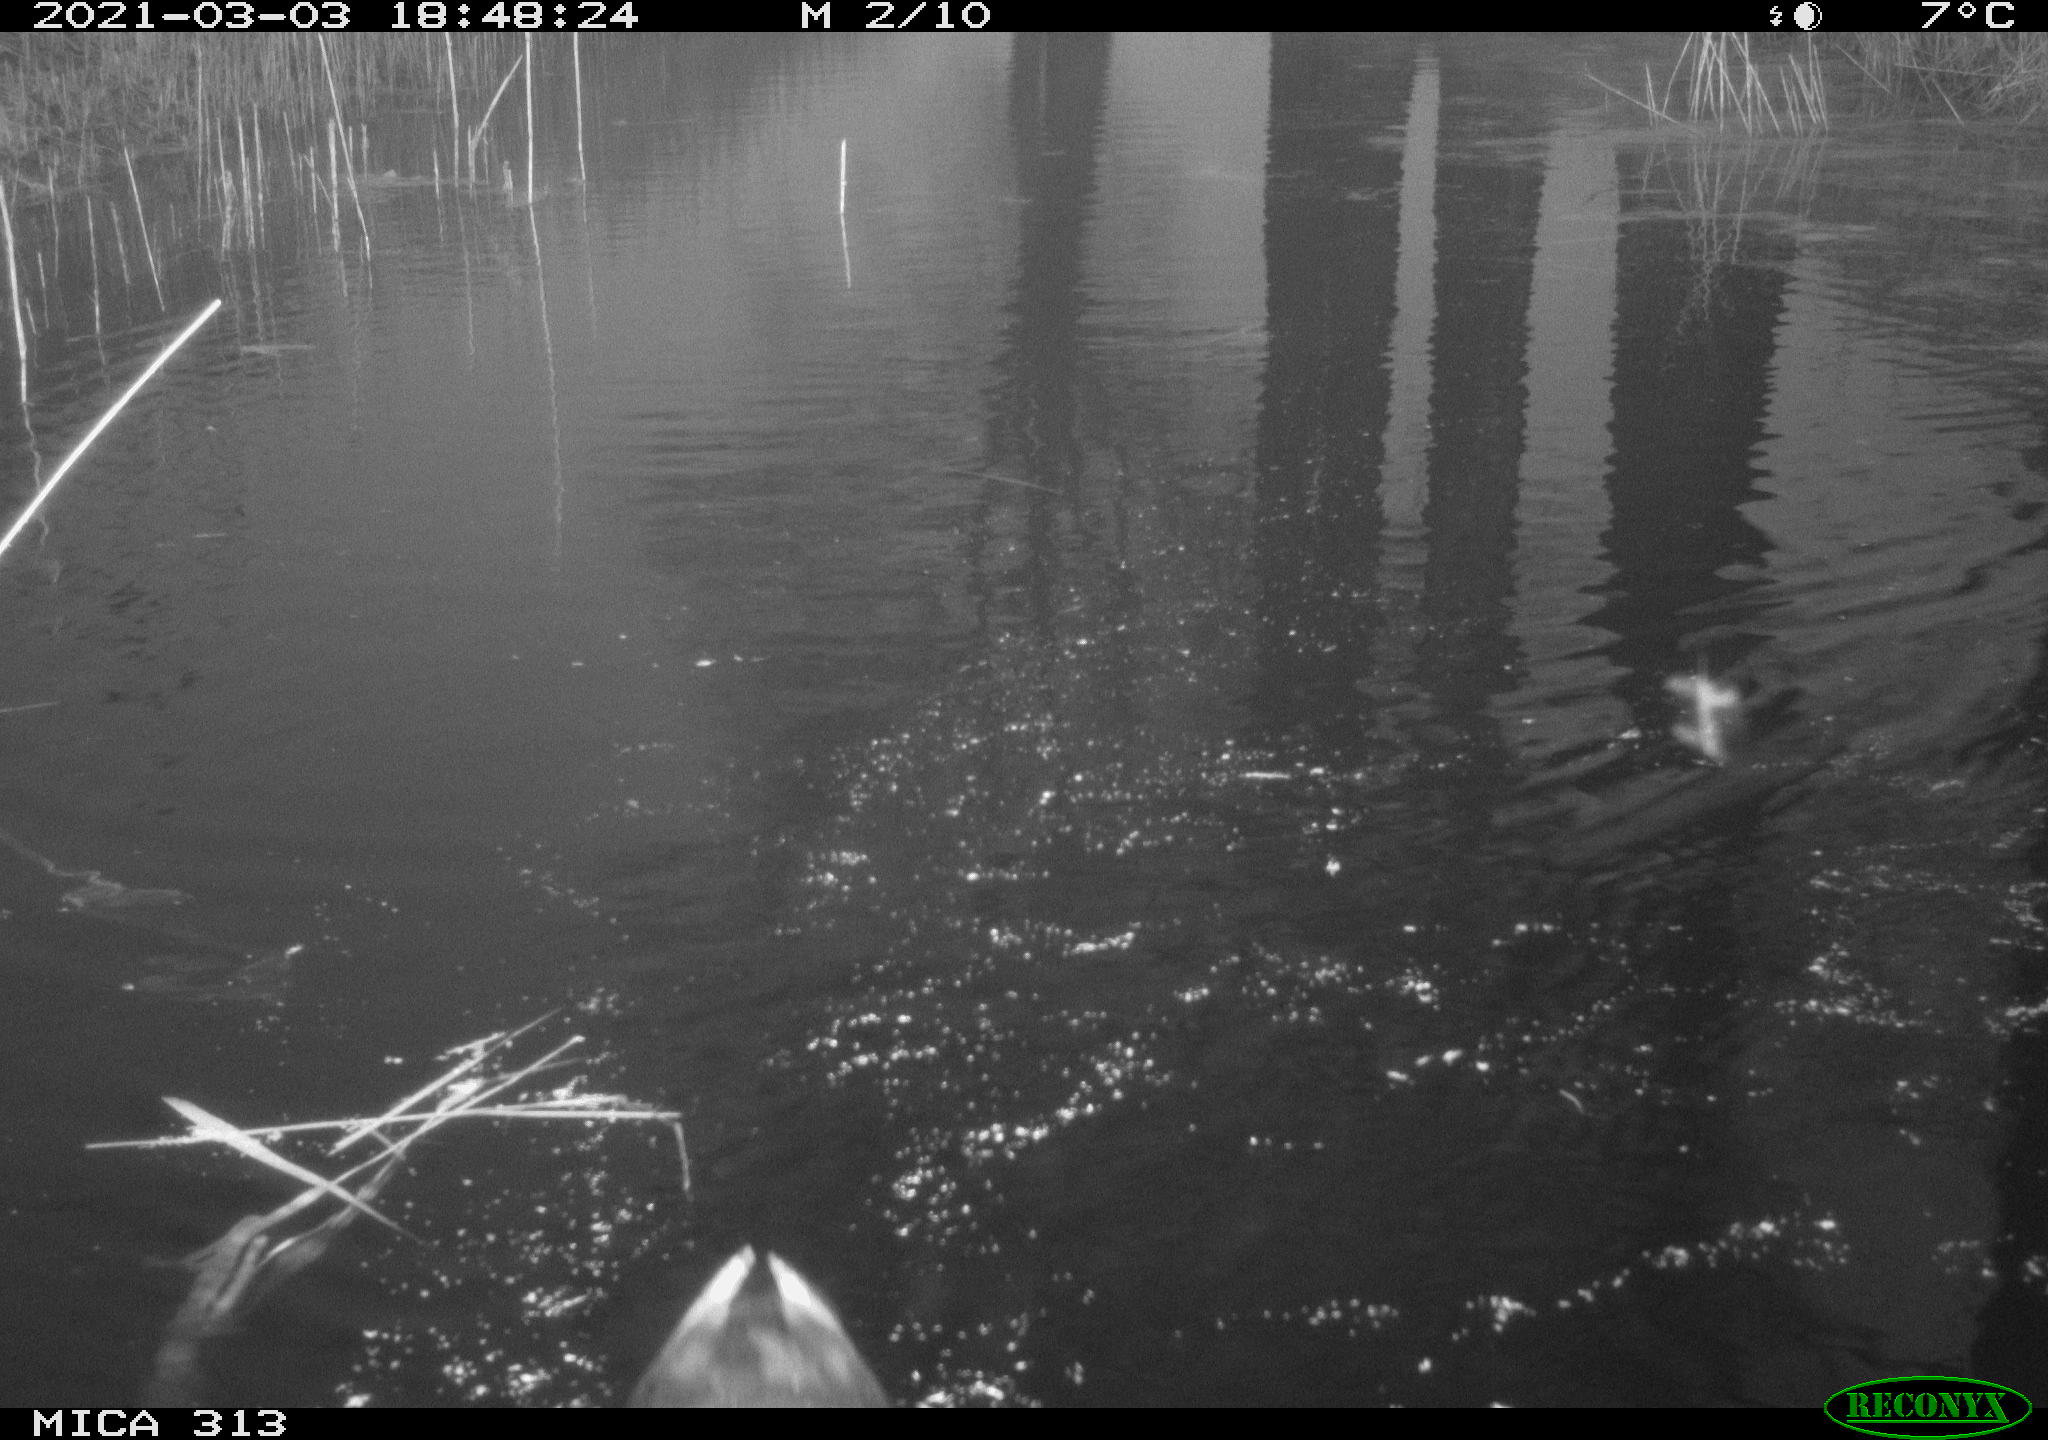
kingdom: Animalia
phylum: Chordata
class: Aves
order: Gruiformes
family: Rallidae
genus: Gallinula
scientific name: Gallinula chloropus
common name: Common moorhen
